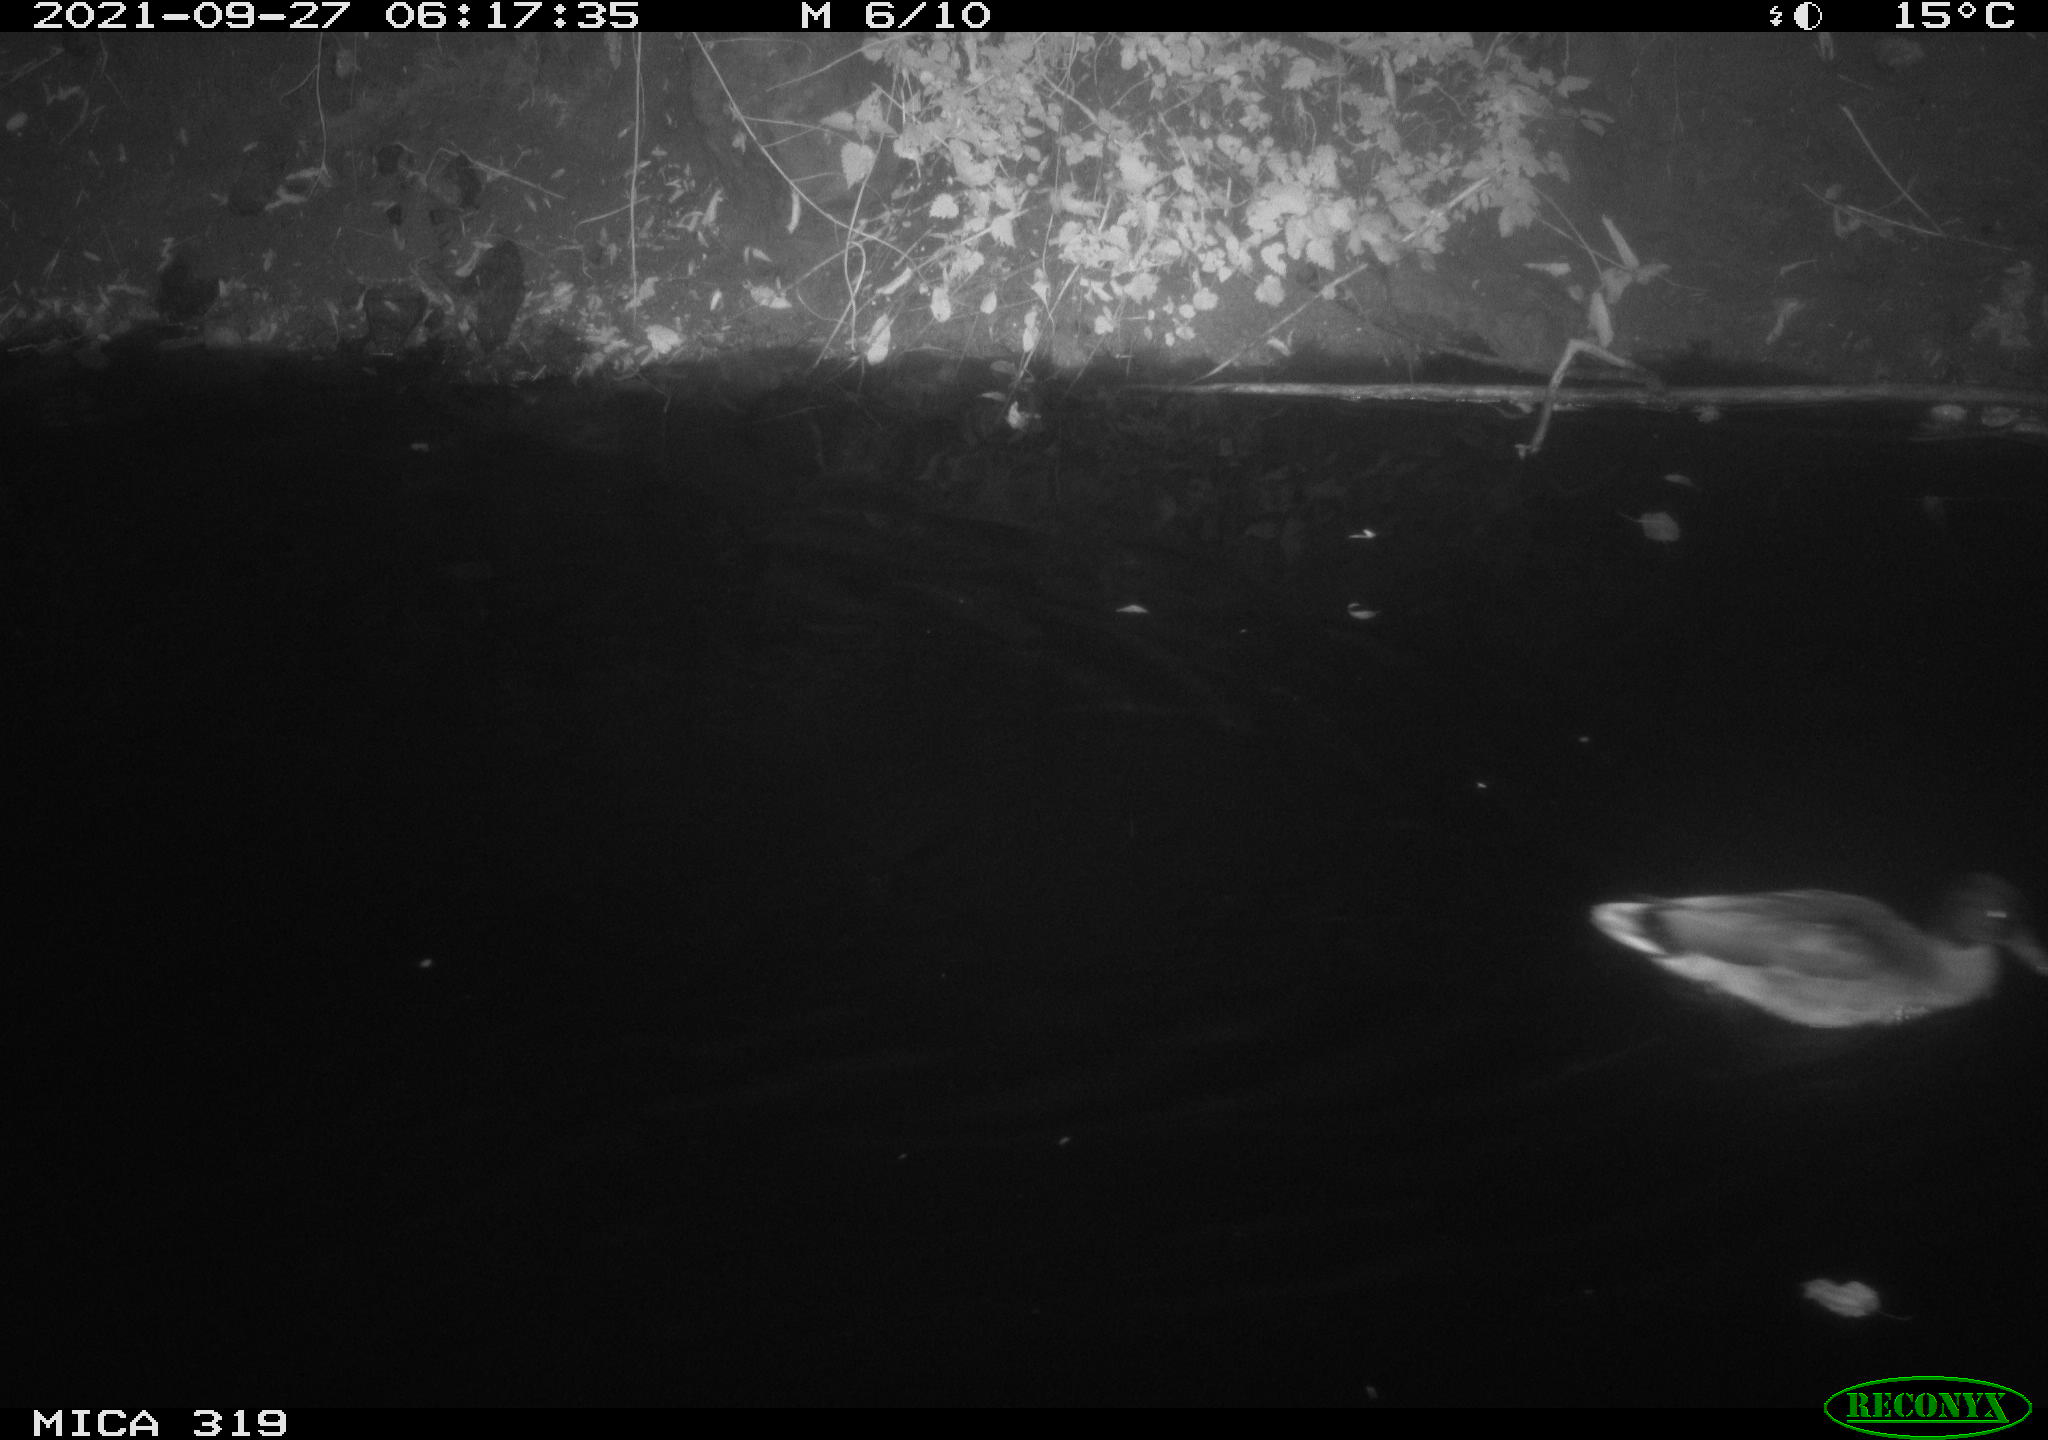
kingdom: Animalia
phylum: Chordata
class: Aves
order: Anseriformes
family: Anatidae
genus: Anas
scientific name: Anas platyrhynchos
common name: Mallard
